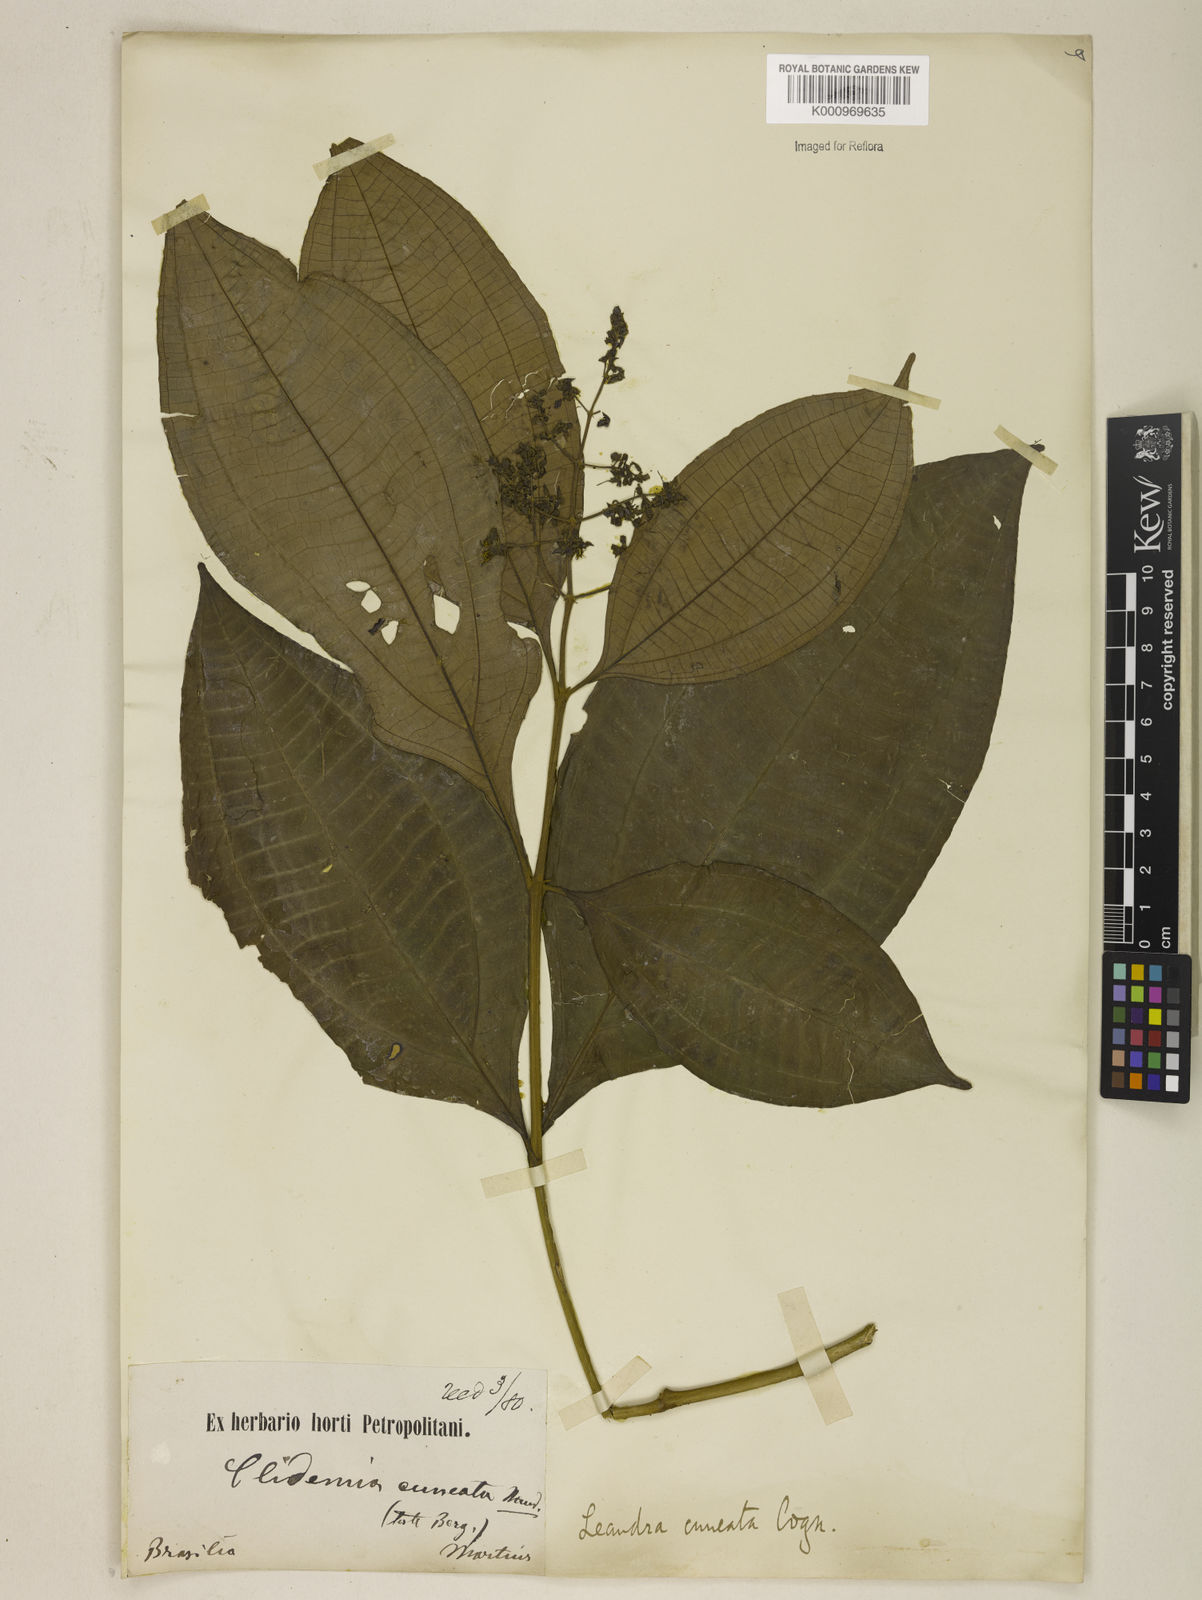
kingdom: Plantae
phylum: Tracheophyta
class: Magnoliopsida
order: Myrtales
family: Melastomataceae
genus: Miconia
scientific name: Miconia cuneatissima
